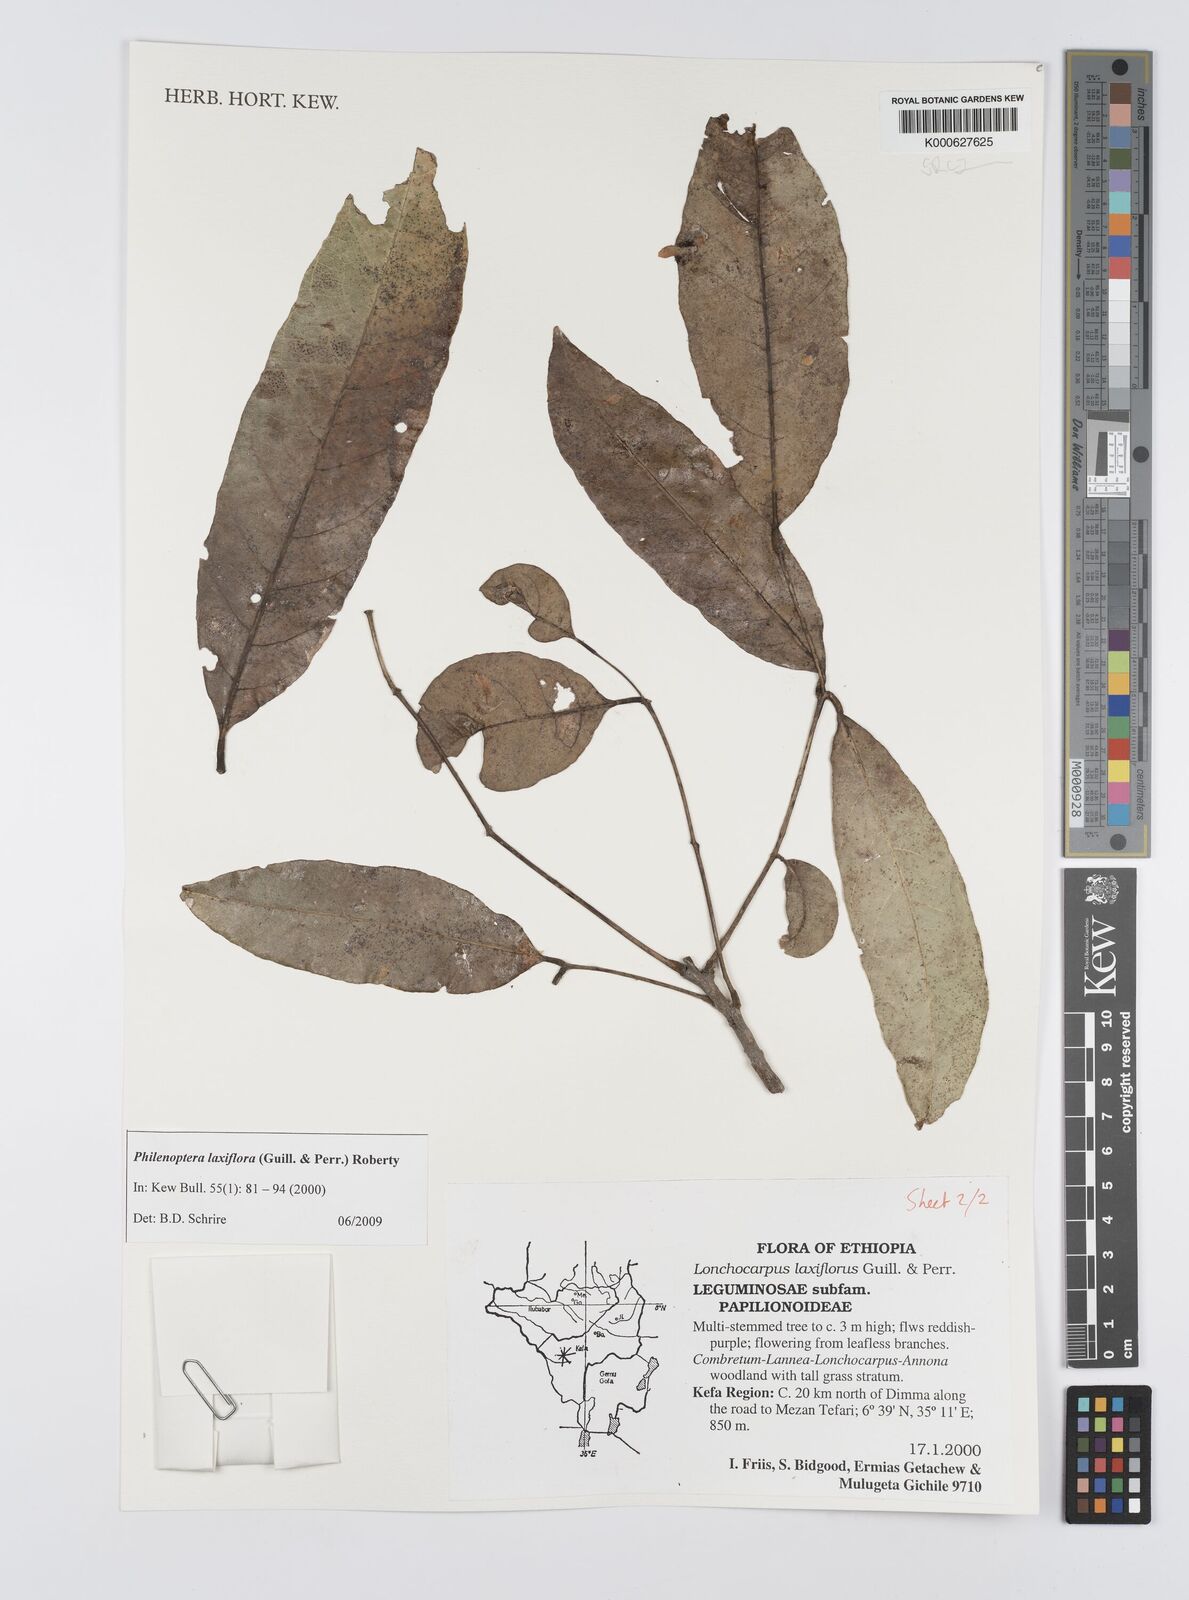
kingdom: Plantae
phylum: Tracheophyta
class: Magnoliopsida
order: Fabales
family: Fabaceae
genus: Philenoptera
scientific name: Philenoptera laxiflora
